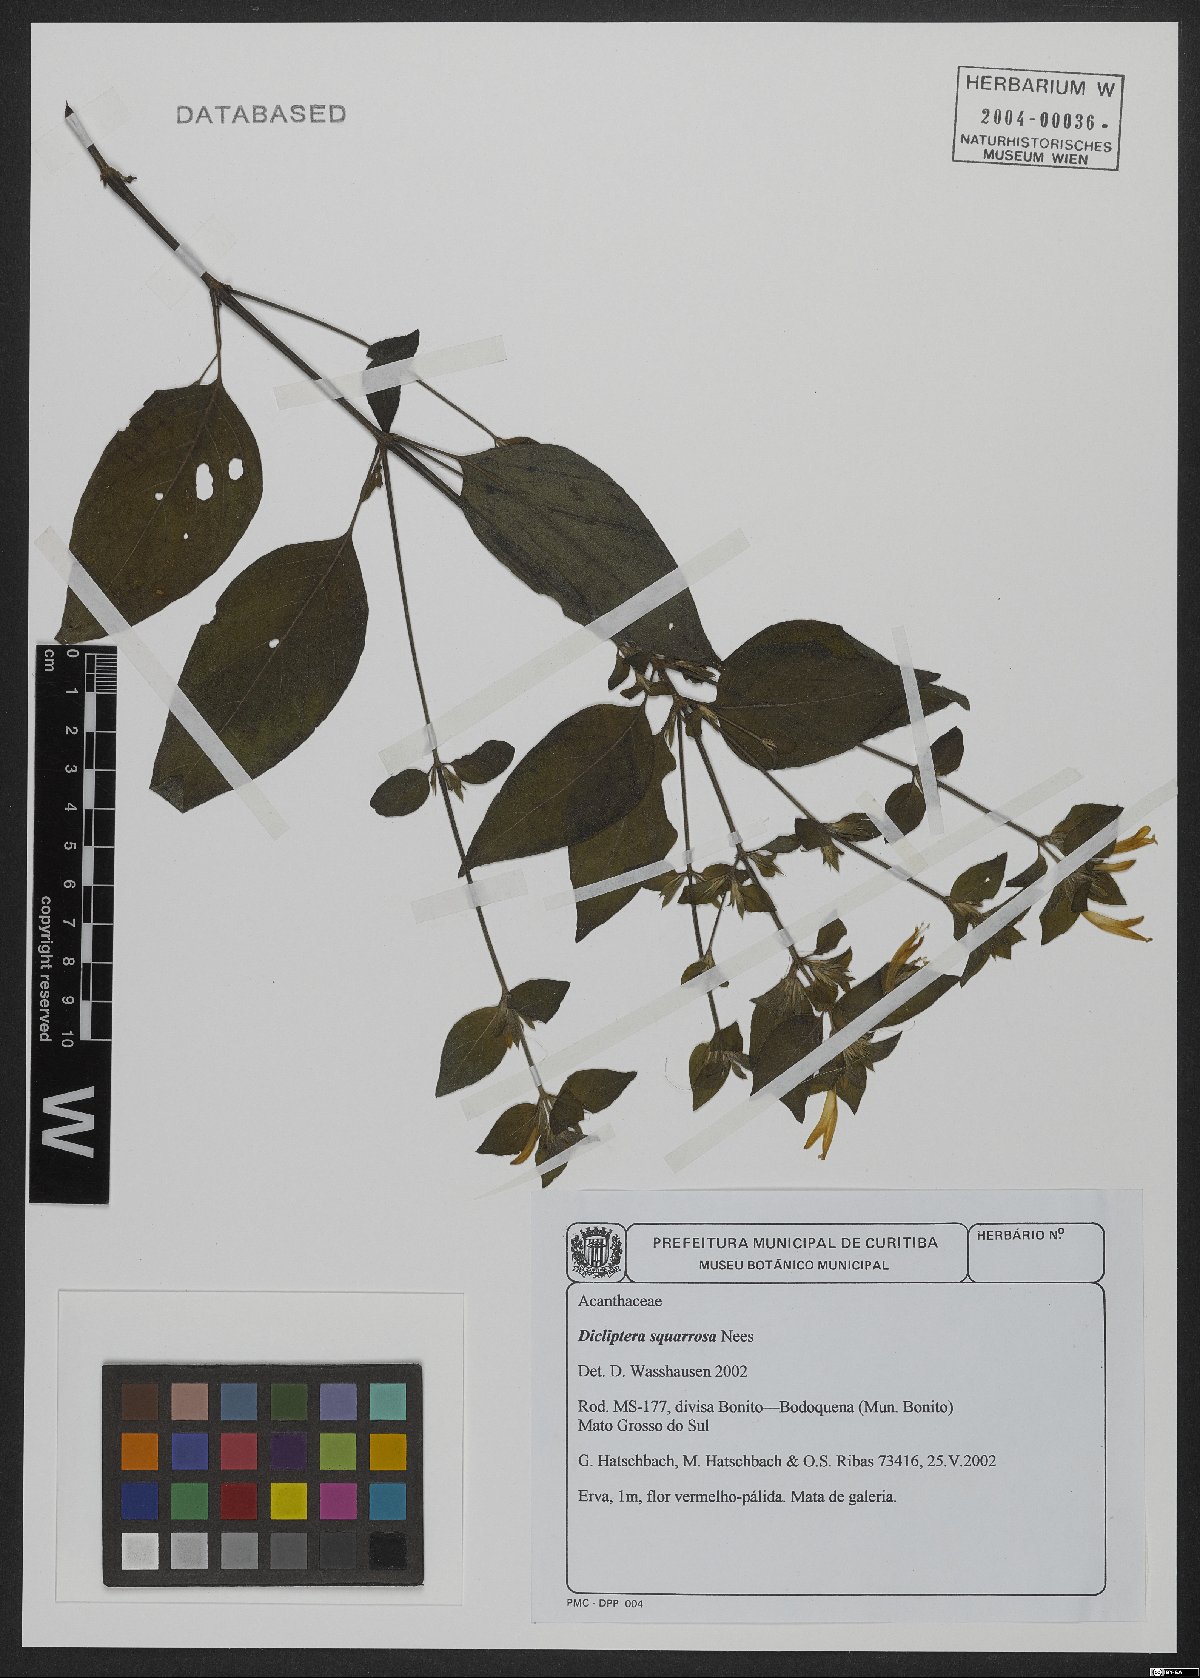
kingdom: Plantae
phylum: Tracheophyta
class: Magnoliopsida
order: Lamiales
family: Acanthaceae
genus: Dicliptera
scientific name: Dicliptera squarrosa
